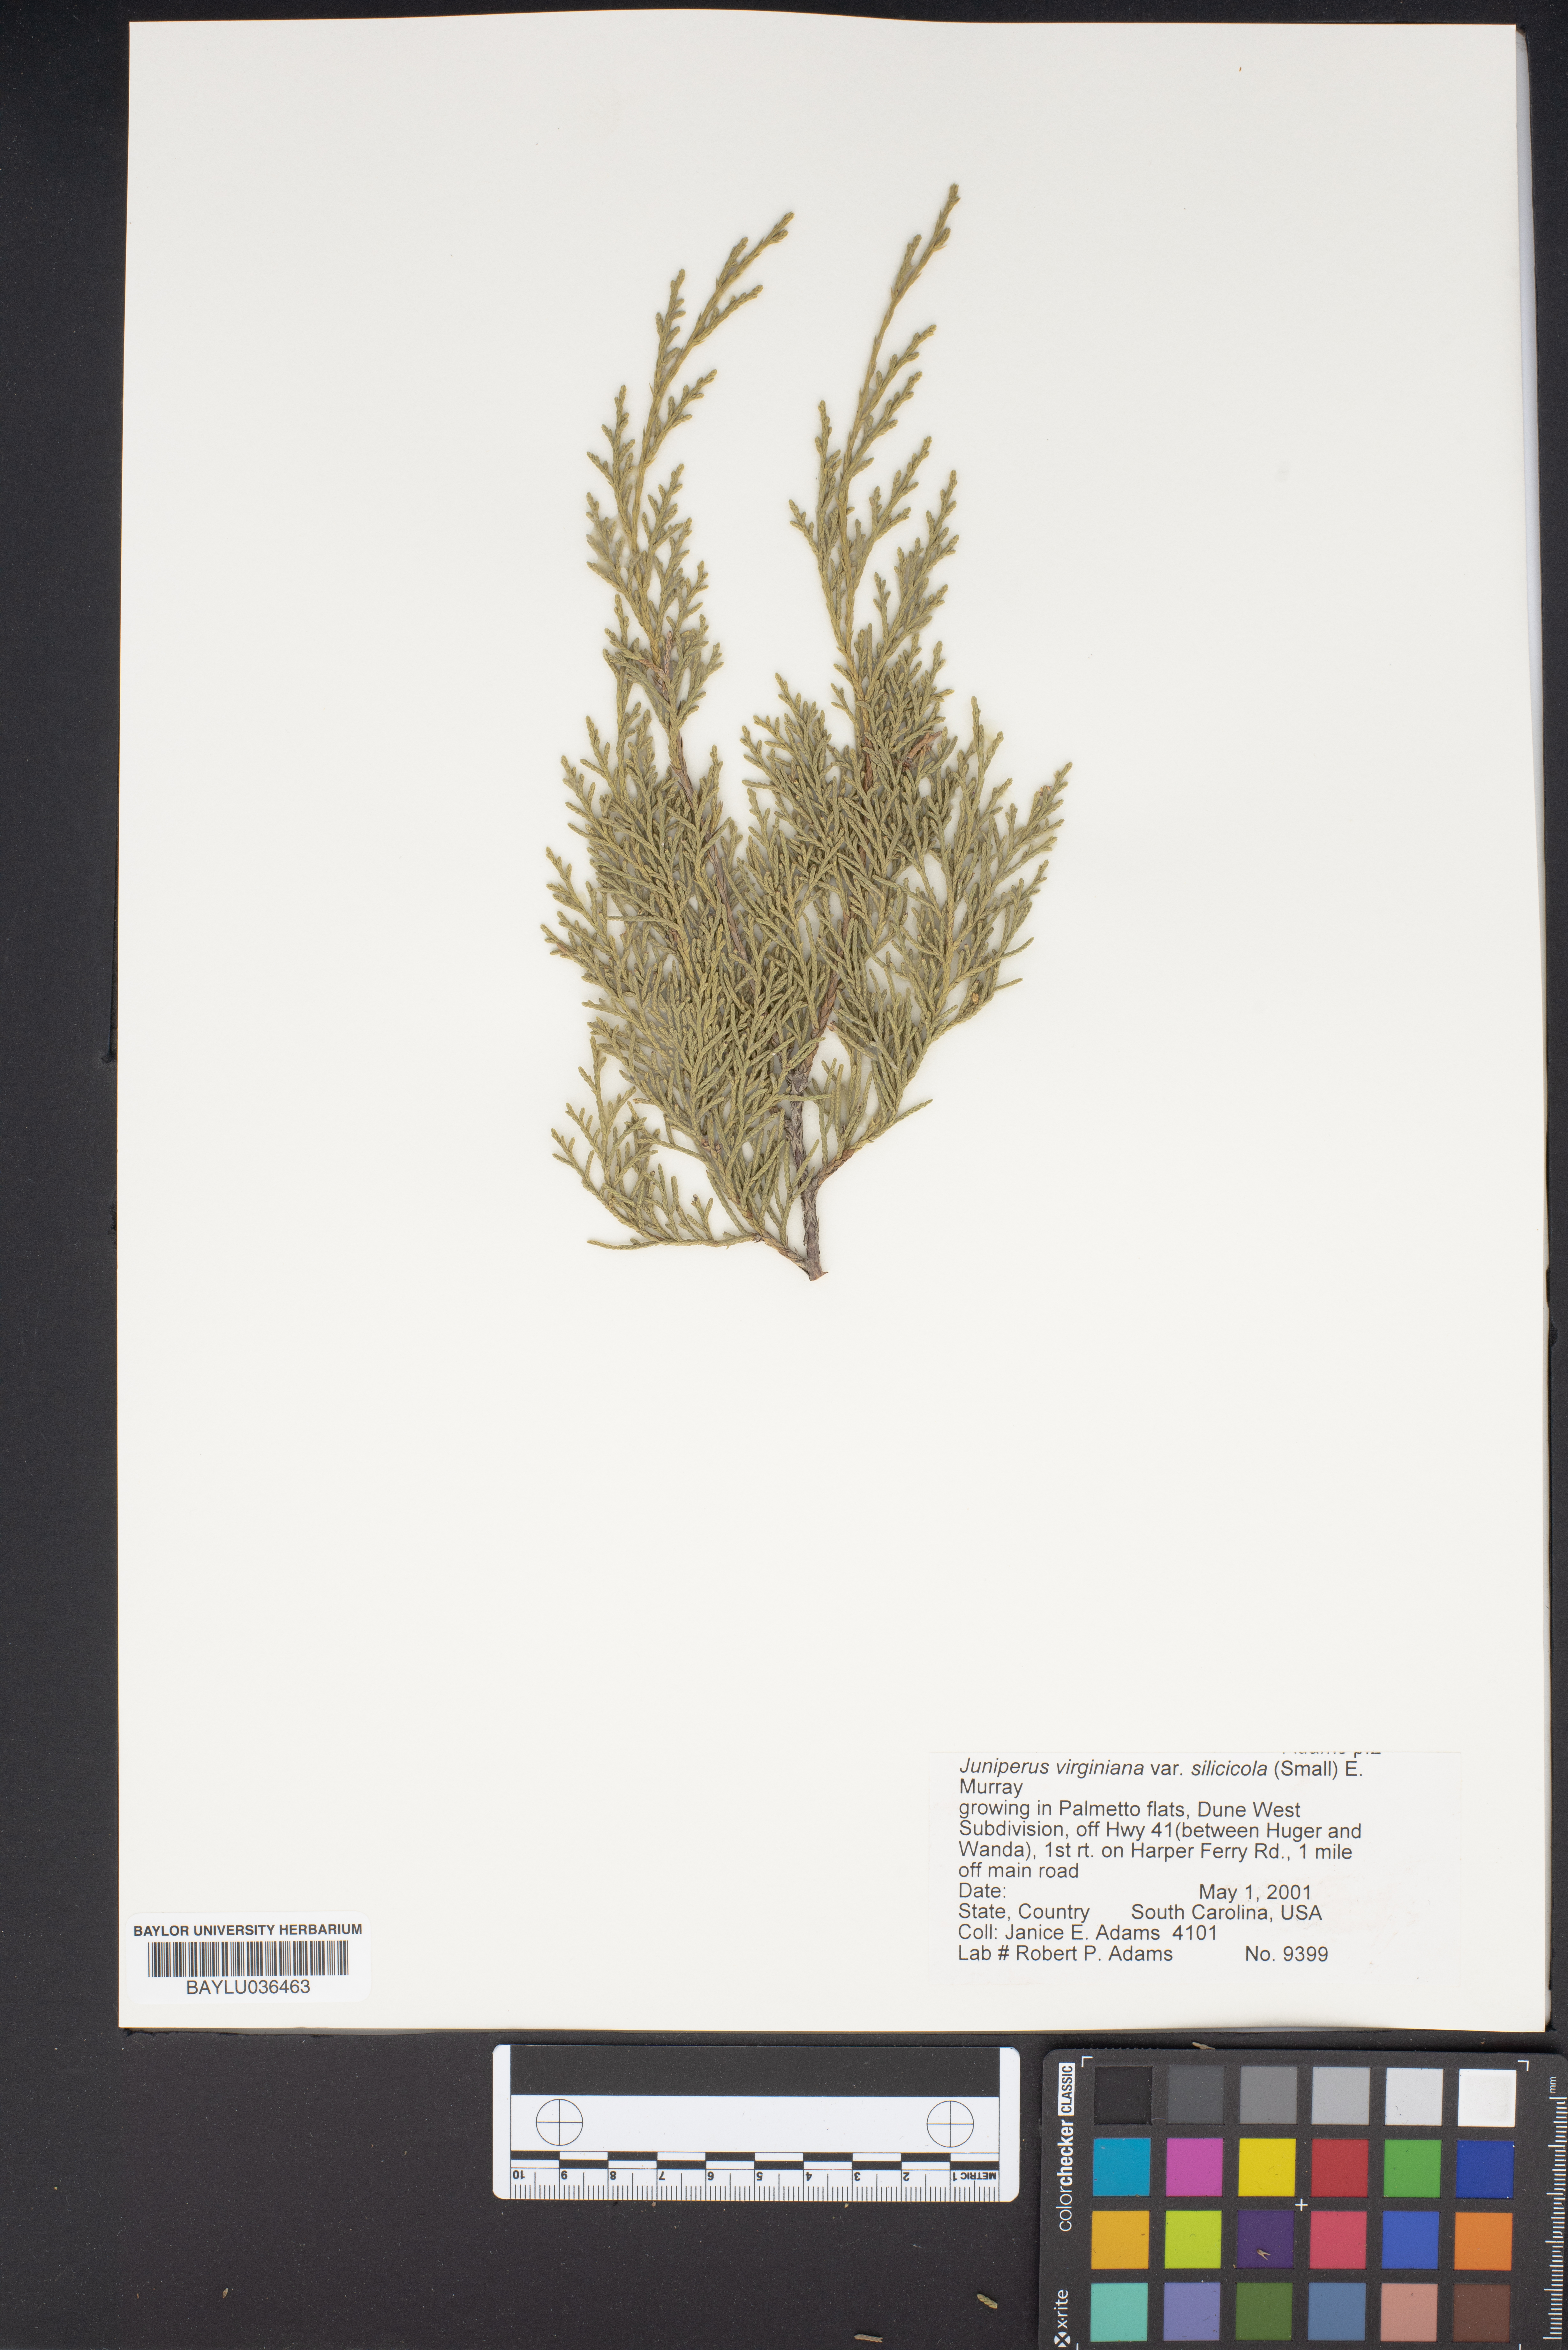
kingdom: Plantae
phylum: Tracheophyta
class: Pinopsida
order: Pinales
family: Cupressaceae
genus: Juniperus
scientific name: Juniperus virginiana
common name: Red juniper
